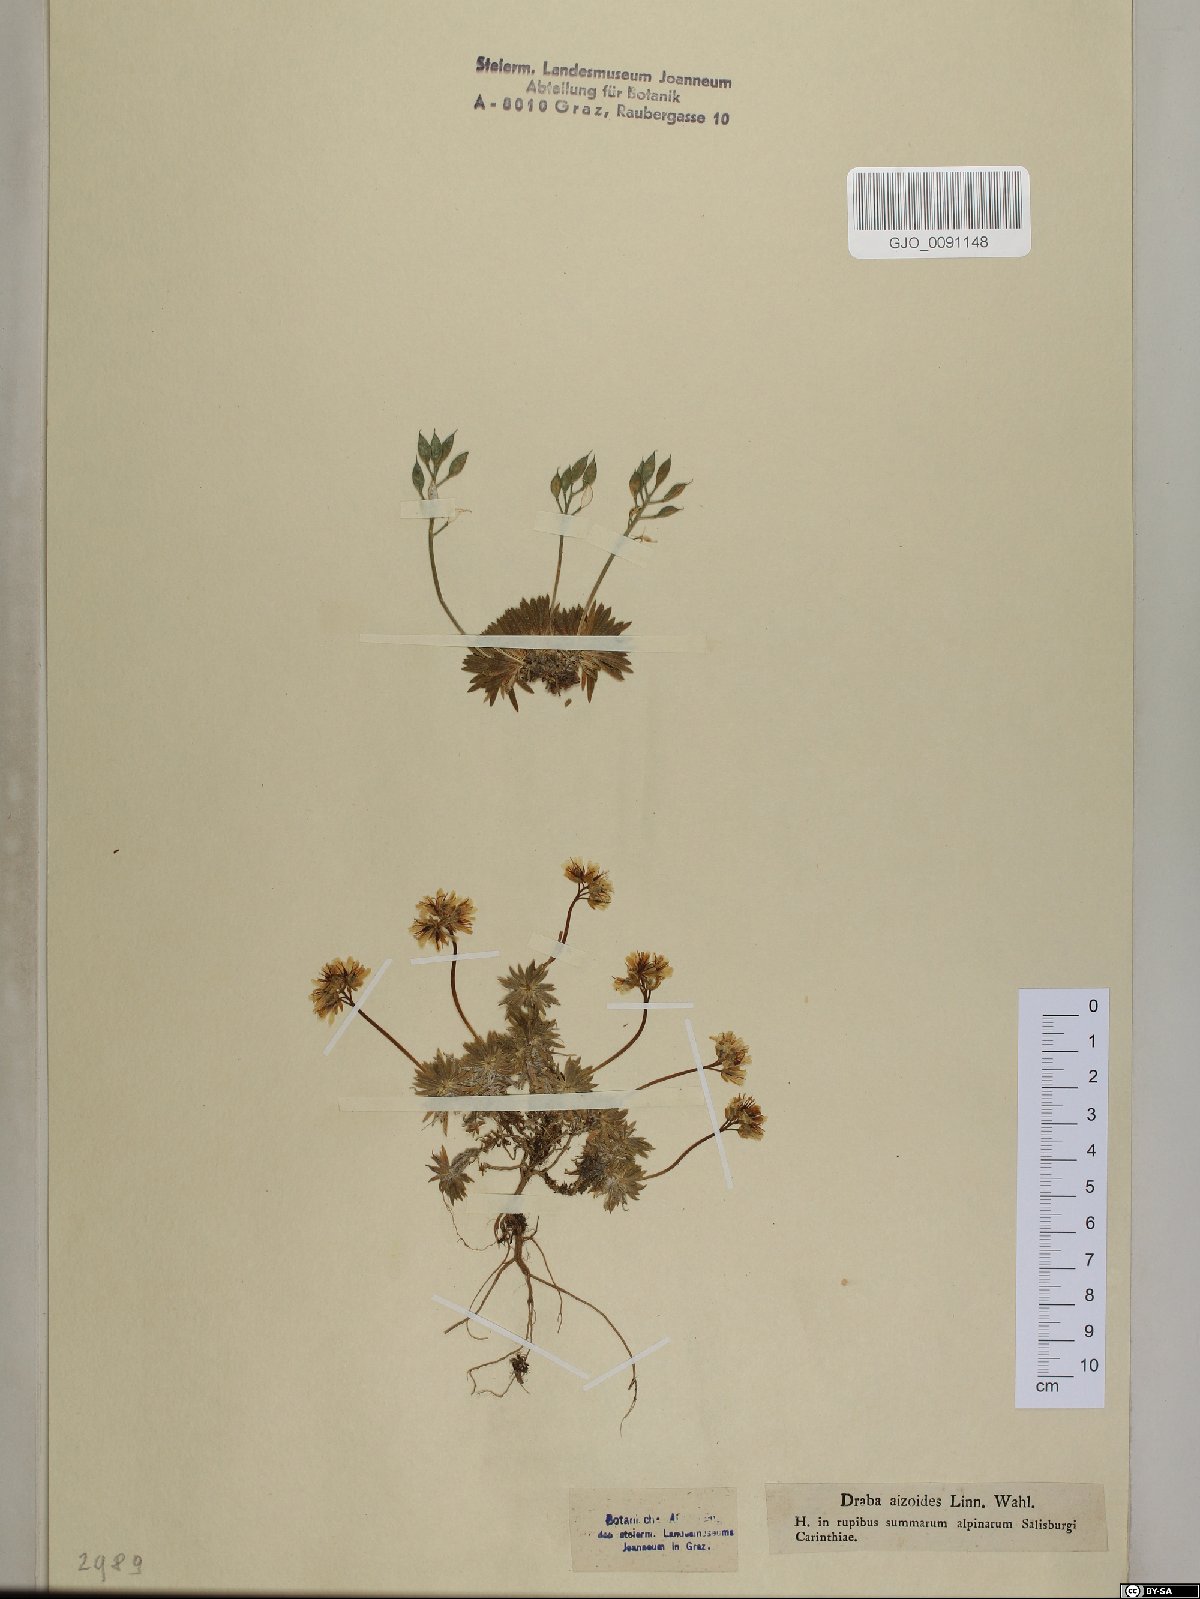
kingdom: Plantae
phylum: Tracheophyta
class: Magnoliopsida
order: Brassicales
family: Brassicaceae
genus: Draba
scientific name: Draba aizoides
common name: Yellow whitlowgrass
